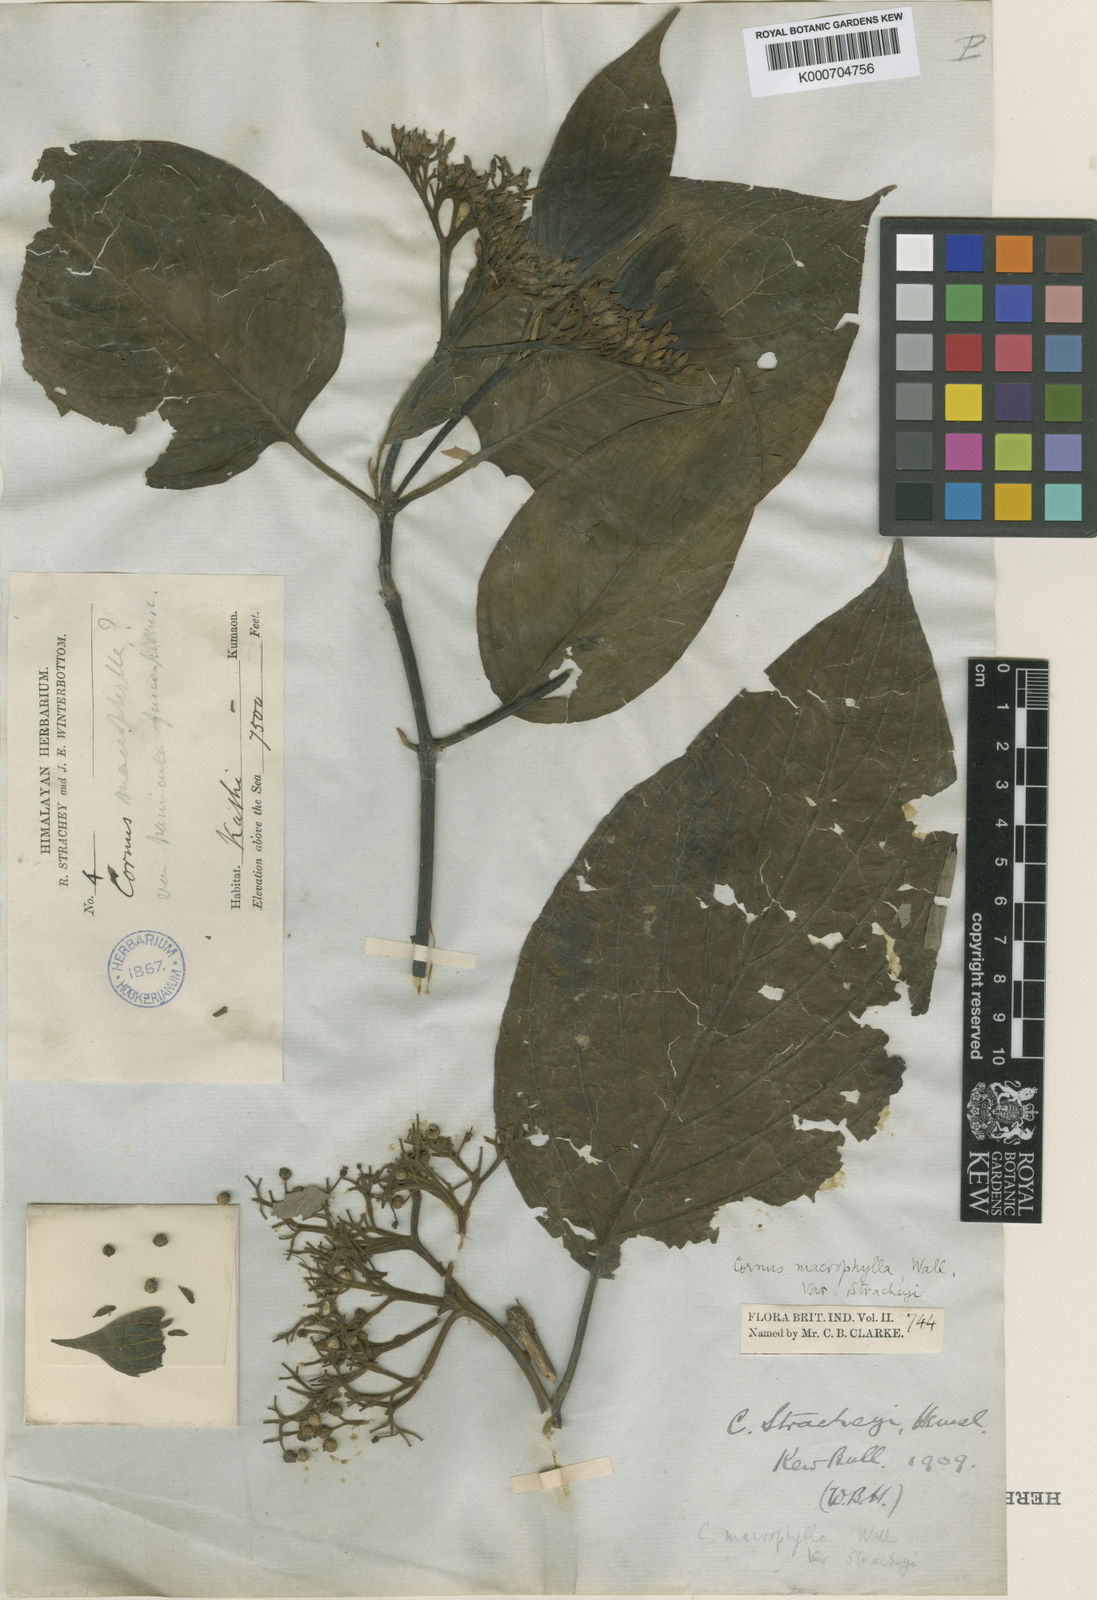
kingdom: Plantae
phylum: Tracheophyta
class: Magnoliopsida
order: Cornales
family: Cornaceae
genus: Cornus
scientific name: Cornus macrophylla
